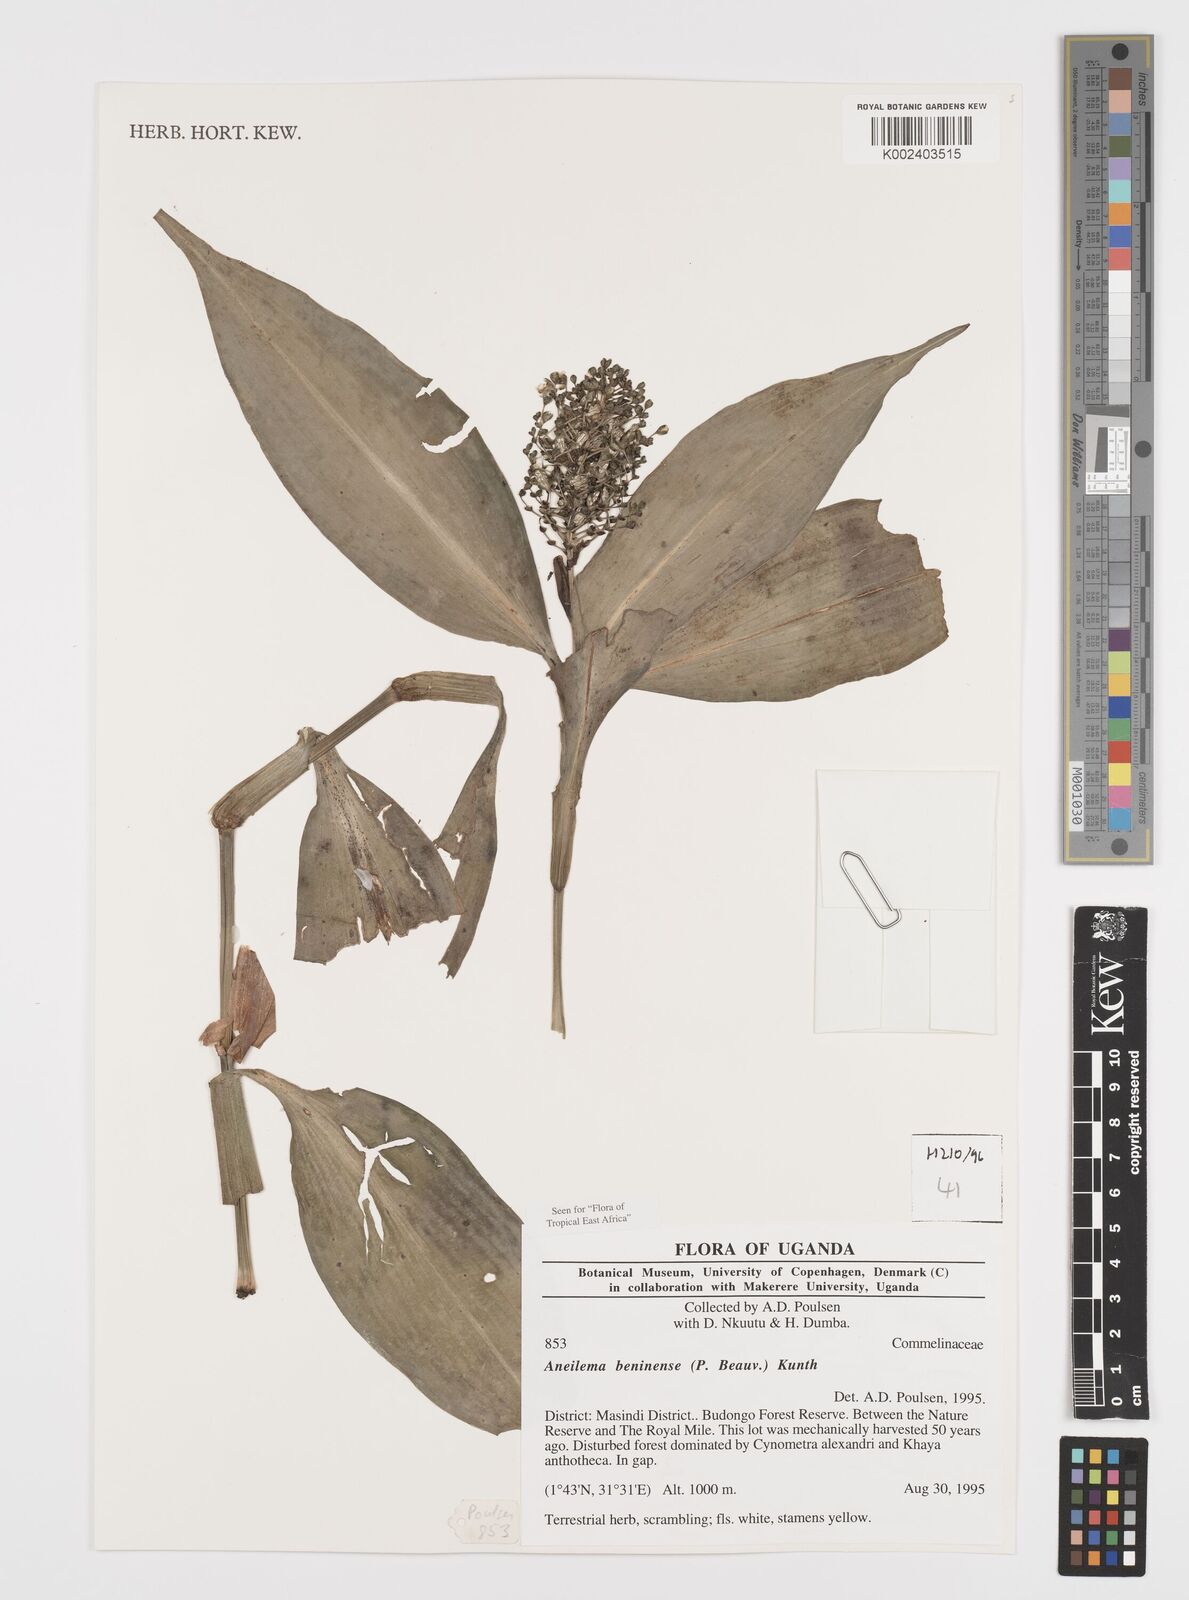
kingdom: Plantae
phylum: Tracheophyta
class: Liliopsida
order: Commelinales
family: Commelinaceae
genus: Aneilema
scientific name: Aneilema beniniense
